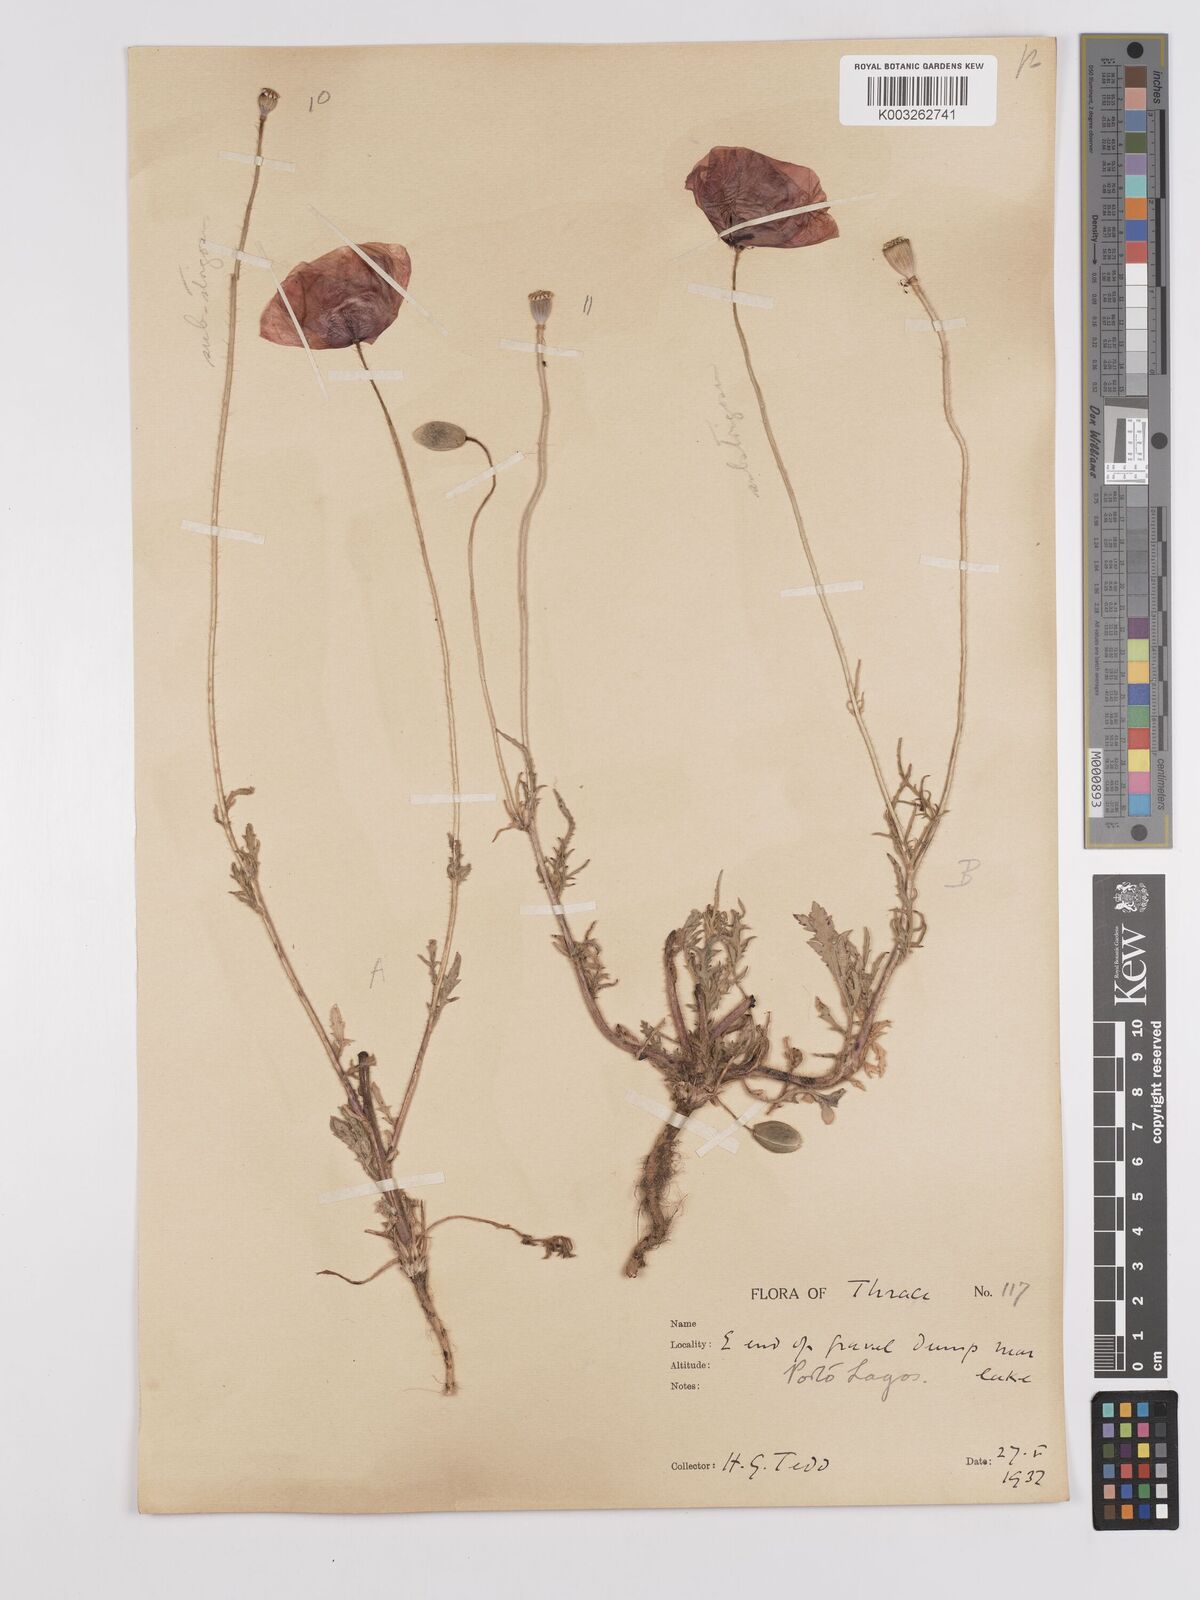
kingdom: Plantae
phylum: Tracheophyta
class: Magnoliopsida
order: Ranunculales
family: Papaveraceae
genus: Papaver
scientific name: Papaver
